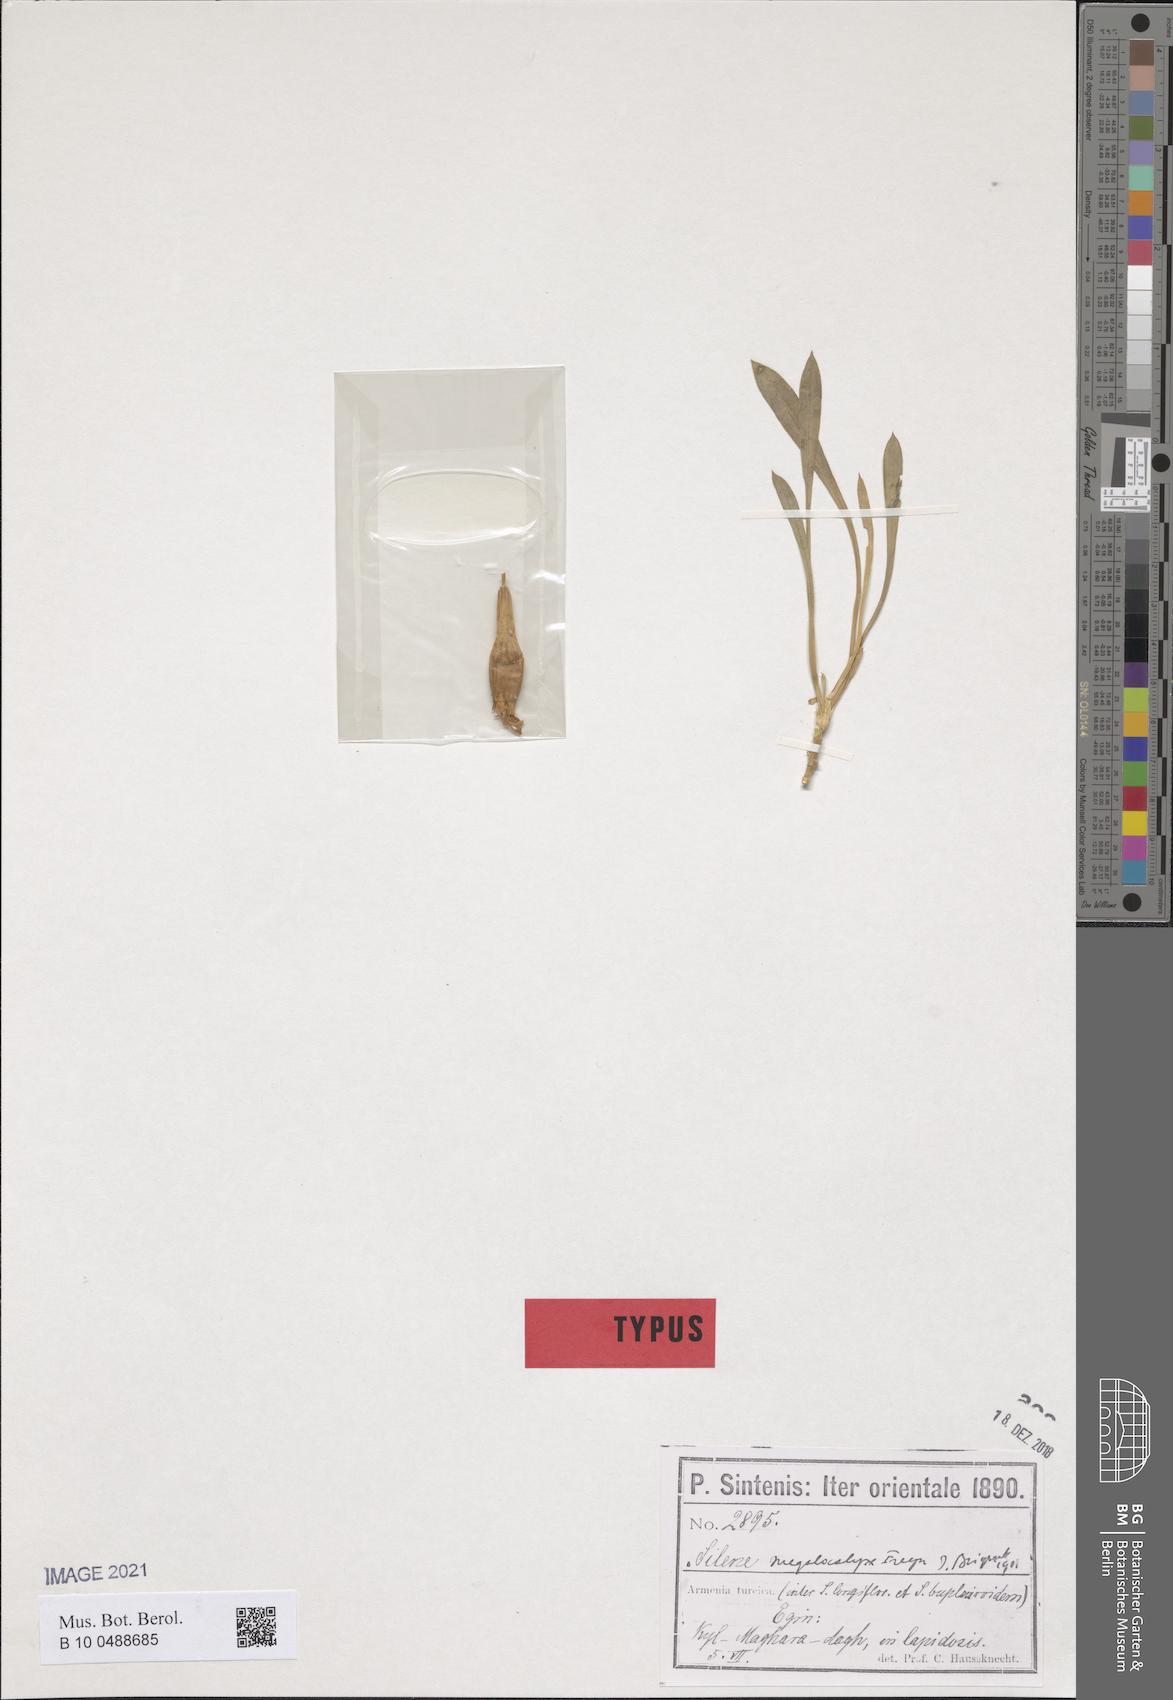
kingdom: Plantae
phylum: Tracheophyta
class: Magnoliopsida
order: Caryophyllales
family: Caryophyllaceae
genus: Silene
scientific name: Silene bupleuroides
